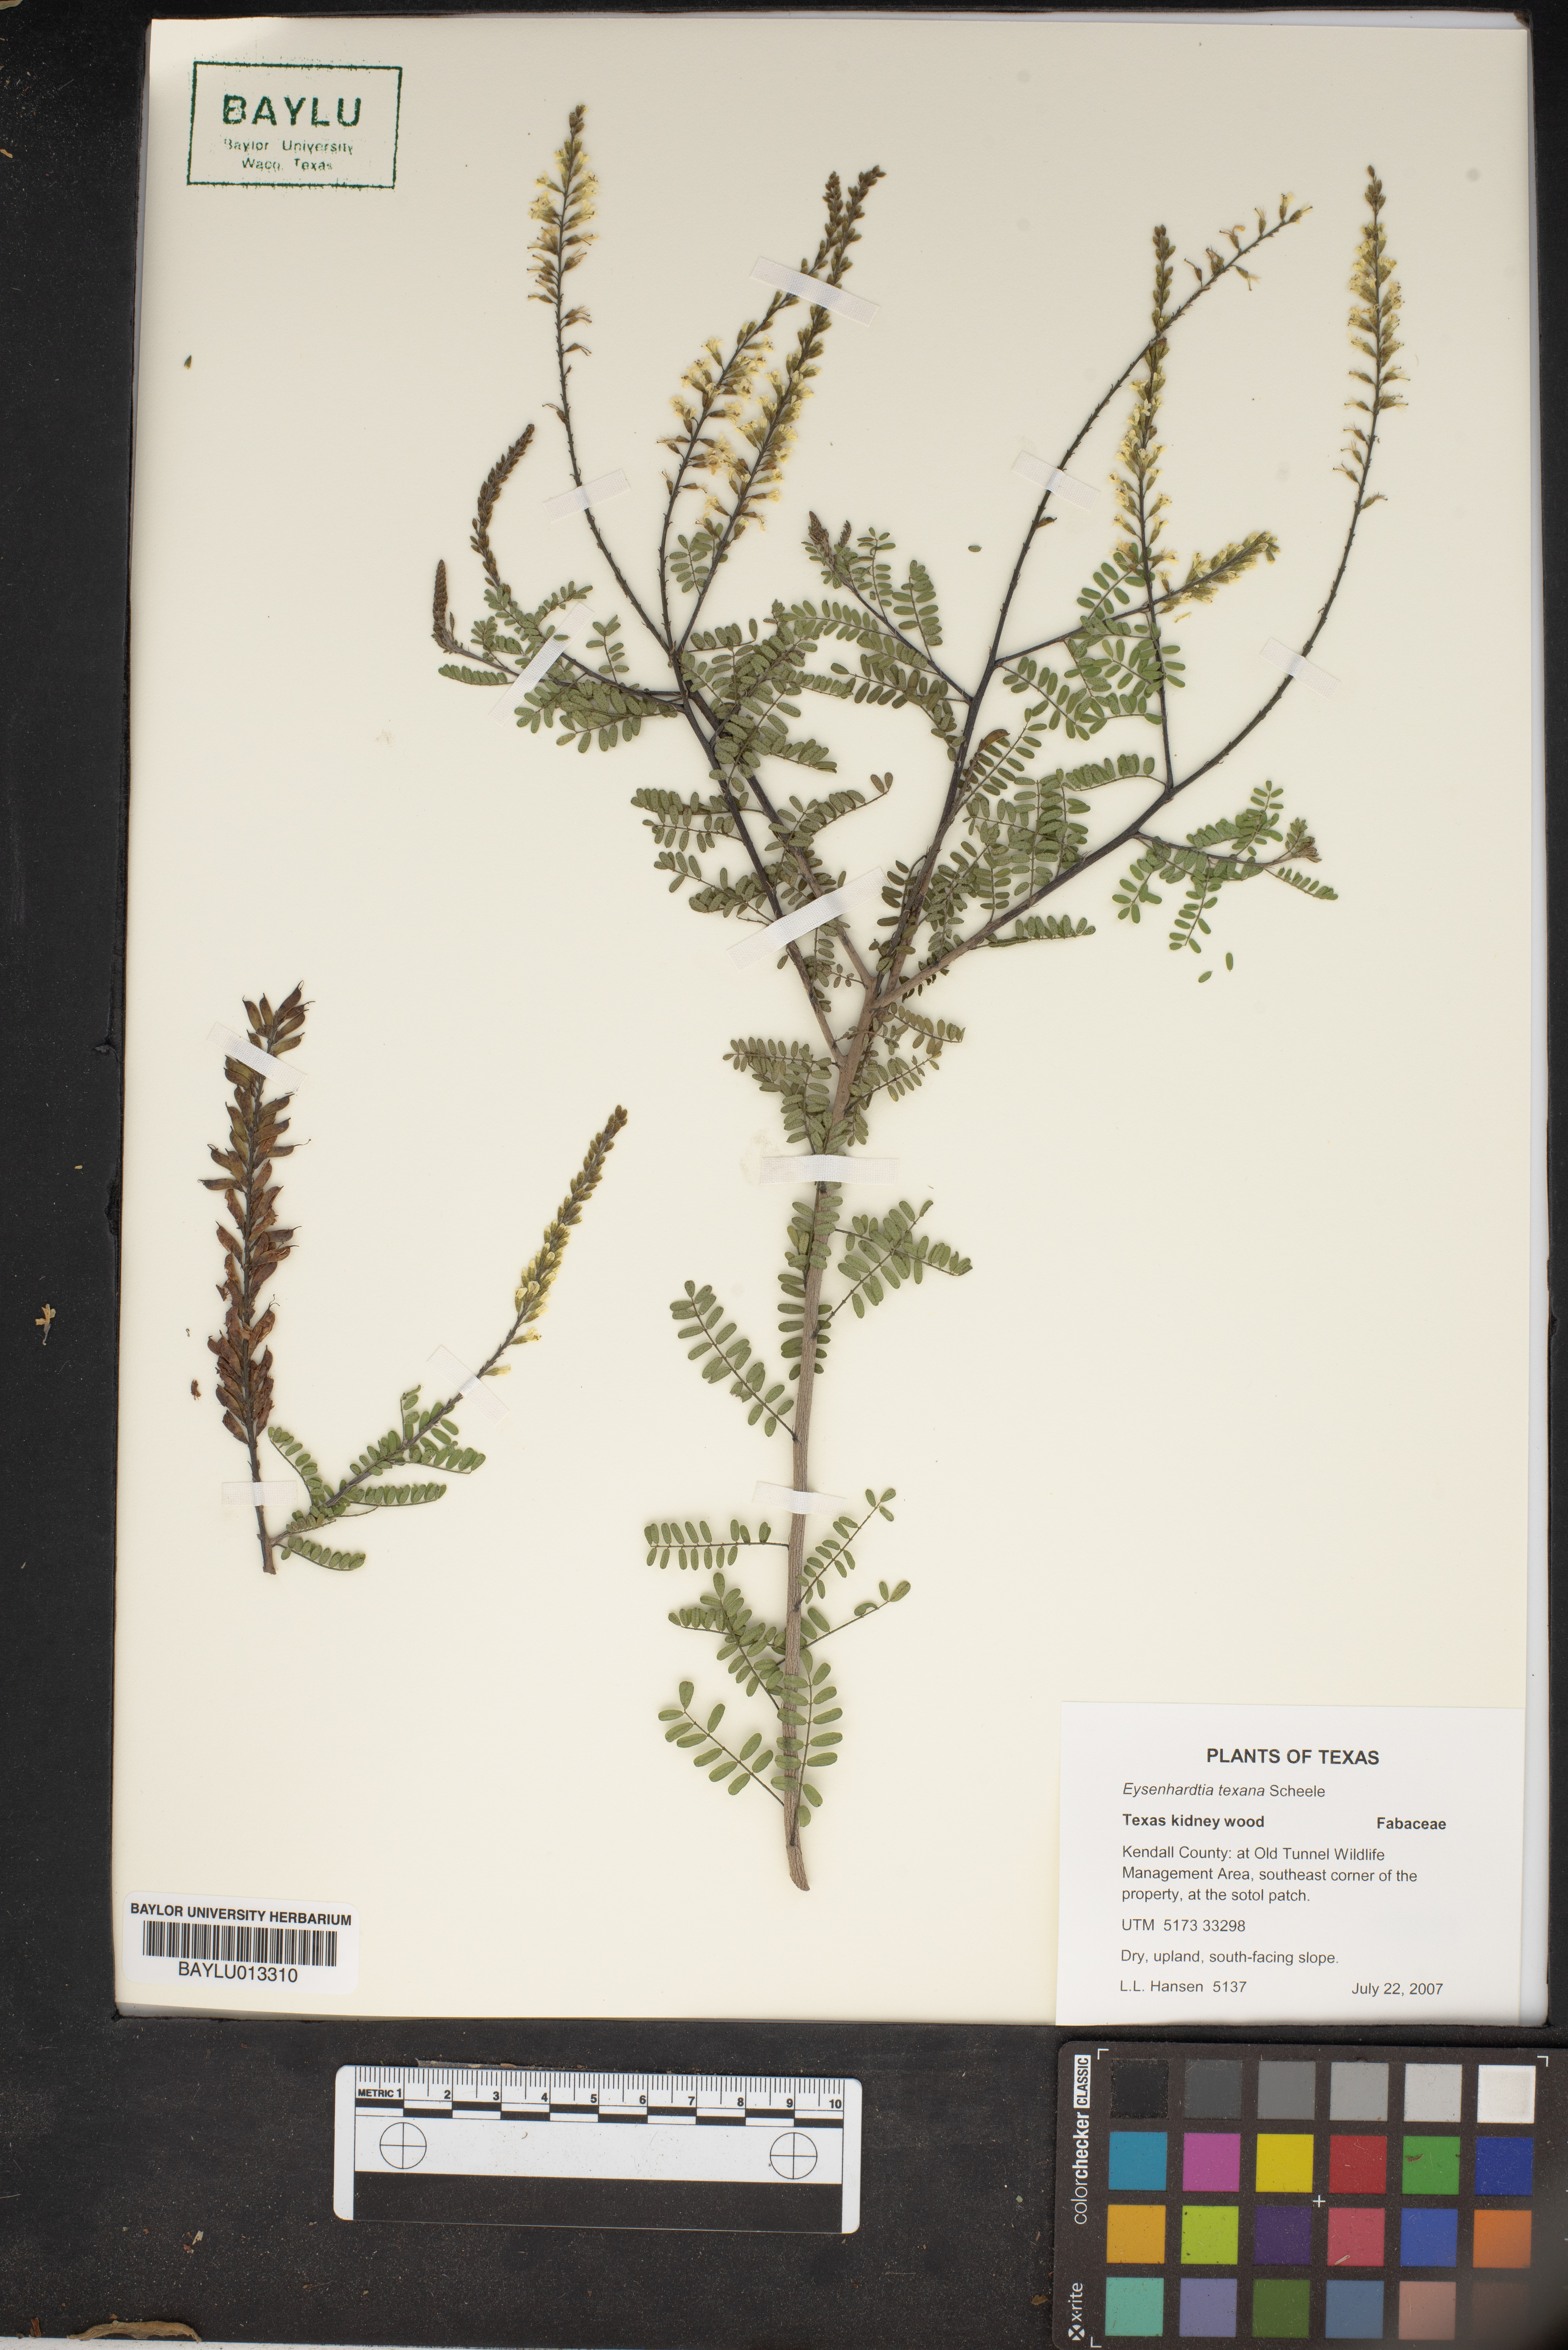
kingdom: Plantae
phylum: Tracheophyta
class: Magnoliopsida
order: Fabales
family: Fabaceae
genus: Eysenhardtia
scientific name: Eysenhardtia texana
